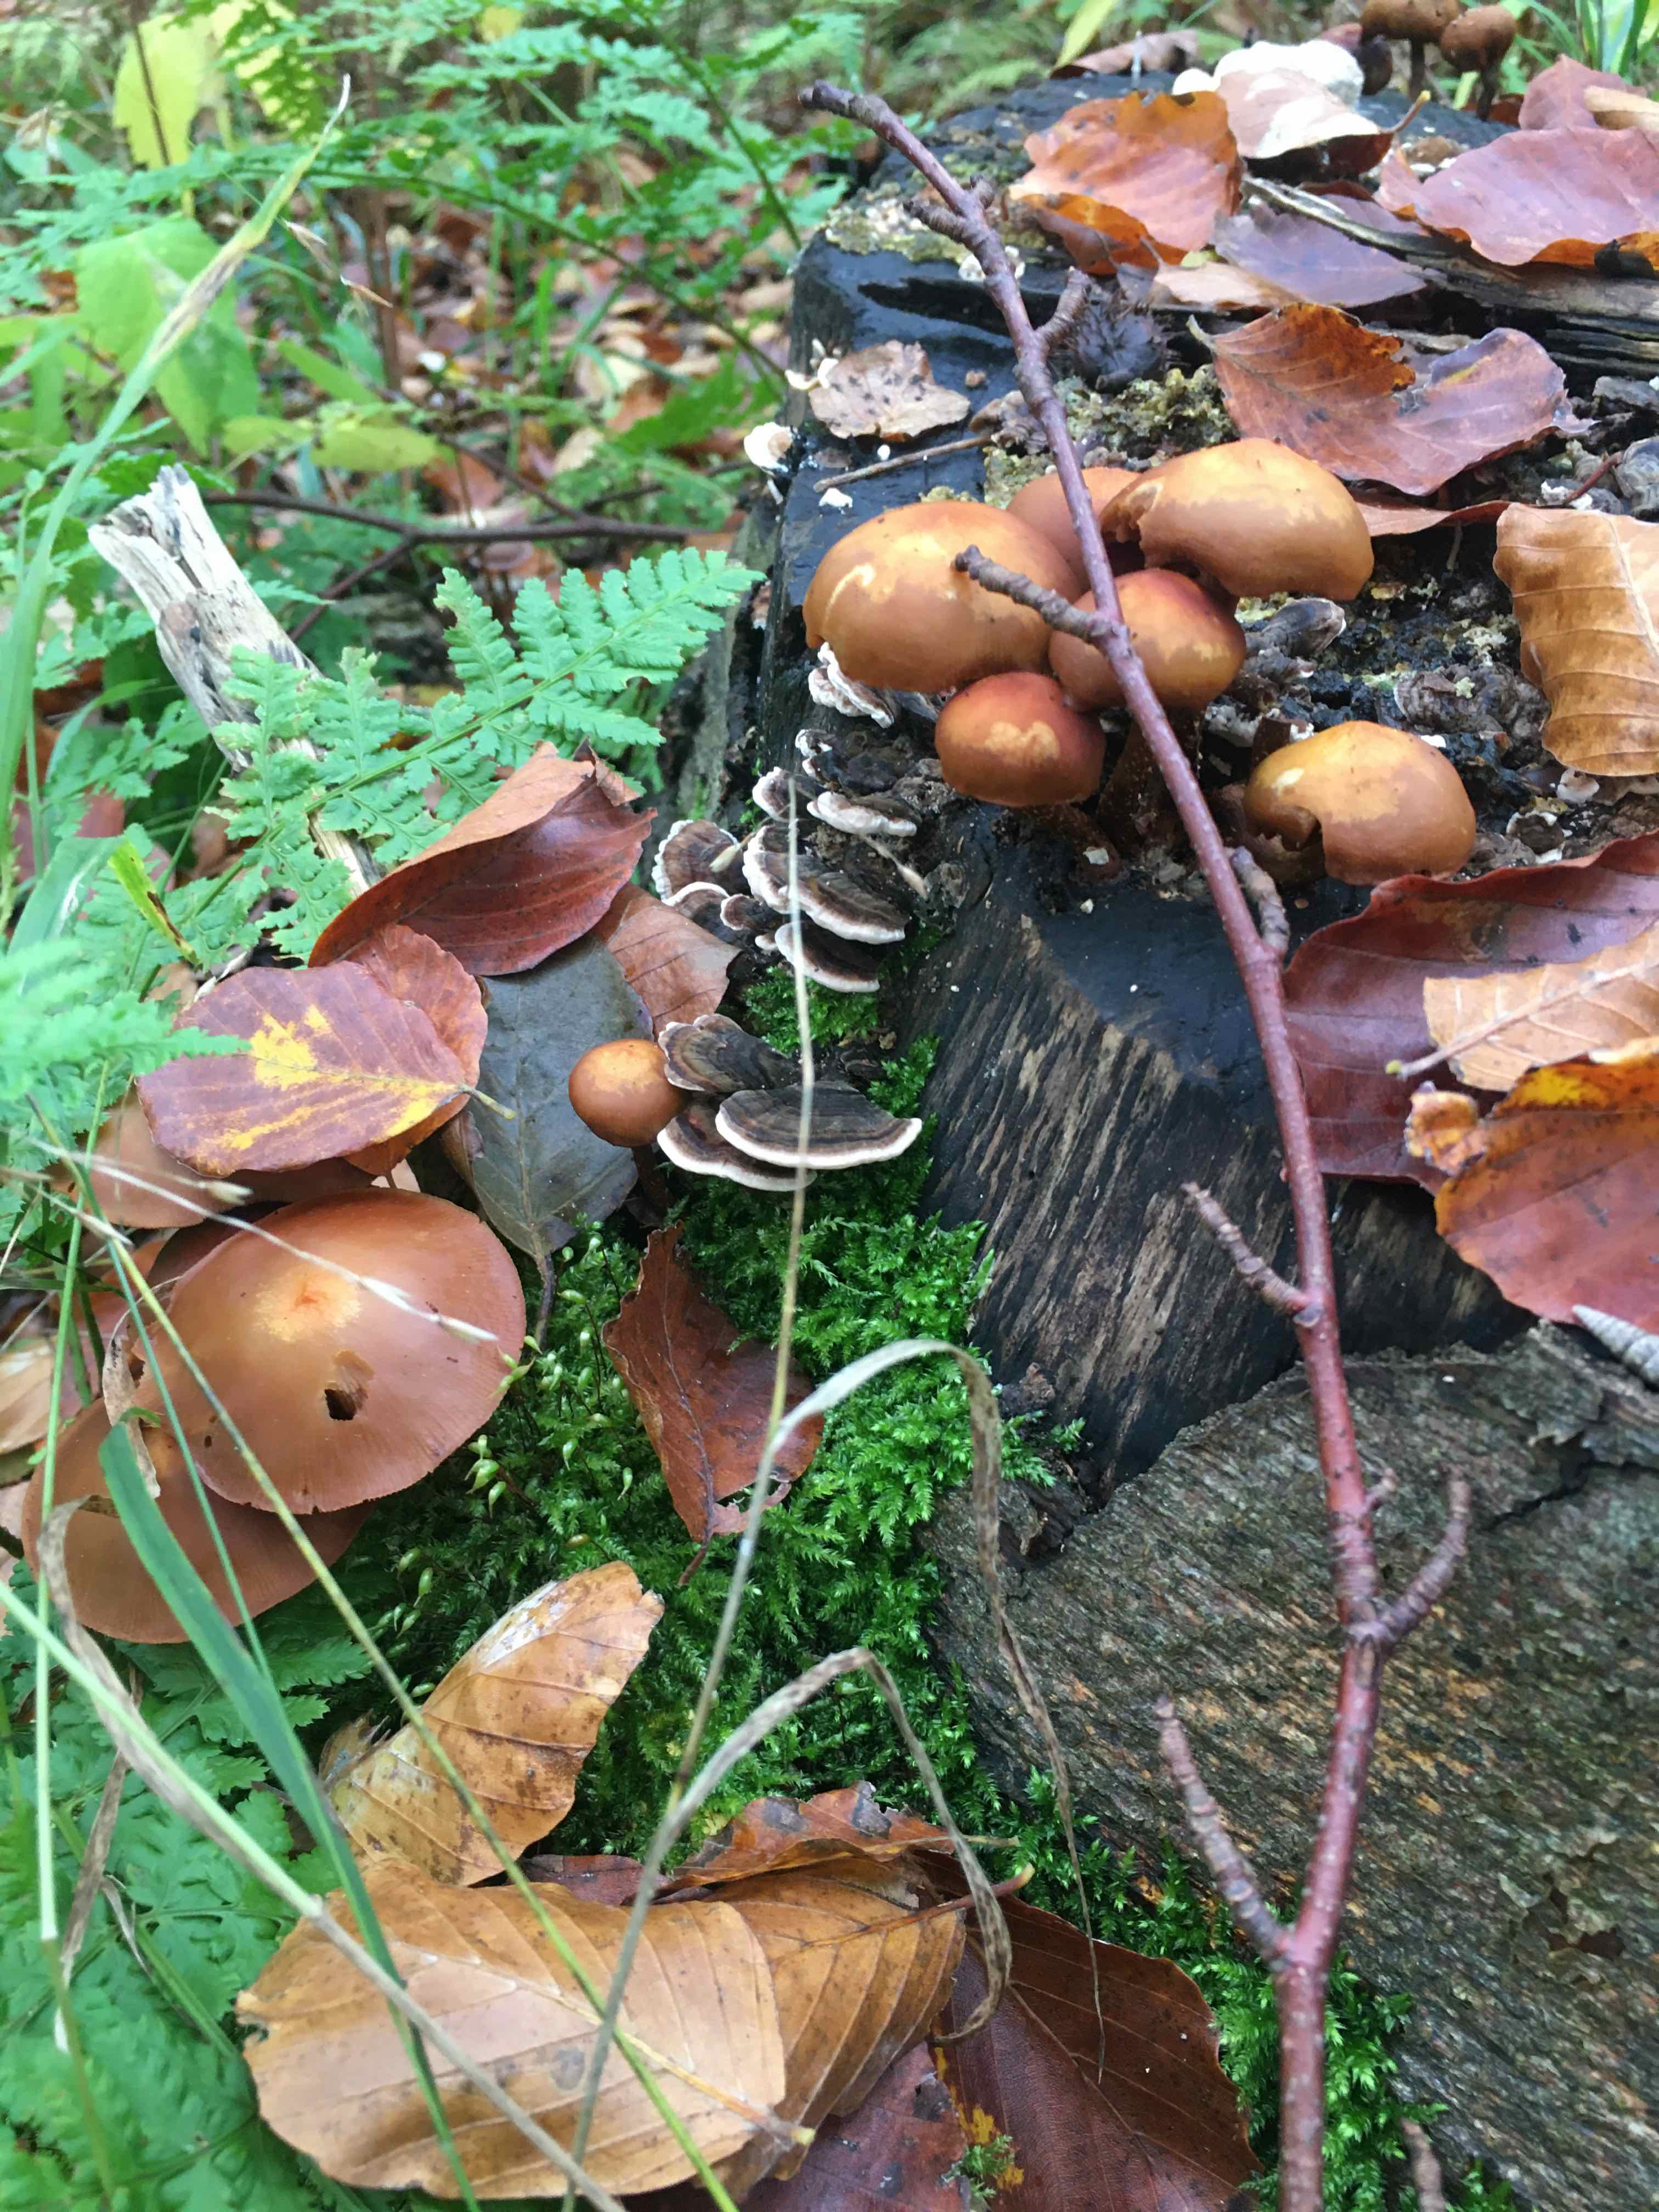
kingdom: Fungi
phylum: Basidiomycota
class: Agaricomycetes
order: Agaricales
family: Strophariaceae
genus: Kuehneromyces
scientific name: Kuehneromyces mutabilis
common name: foranderlig skælhat
